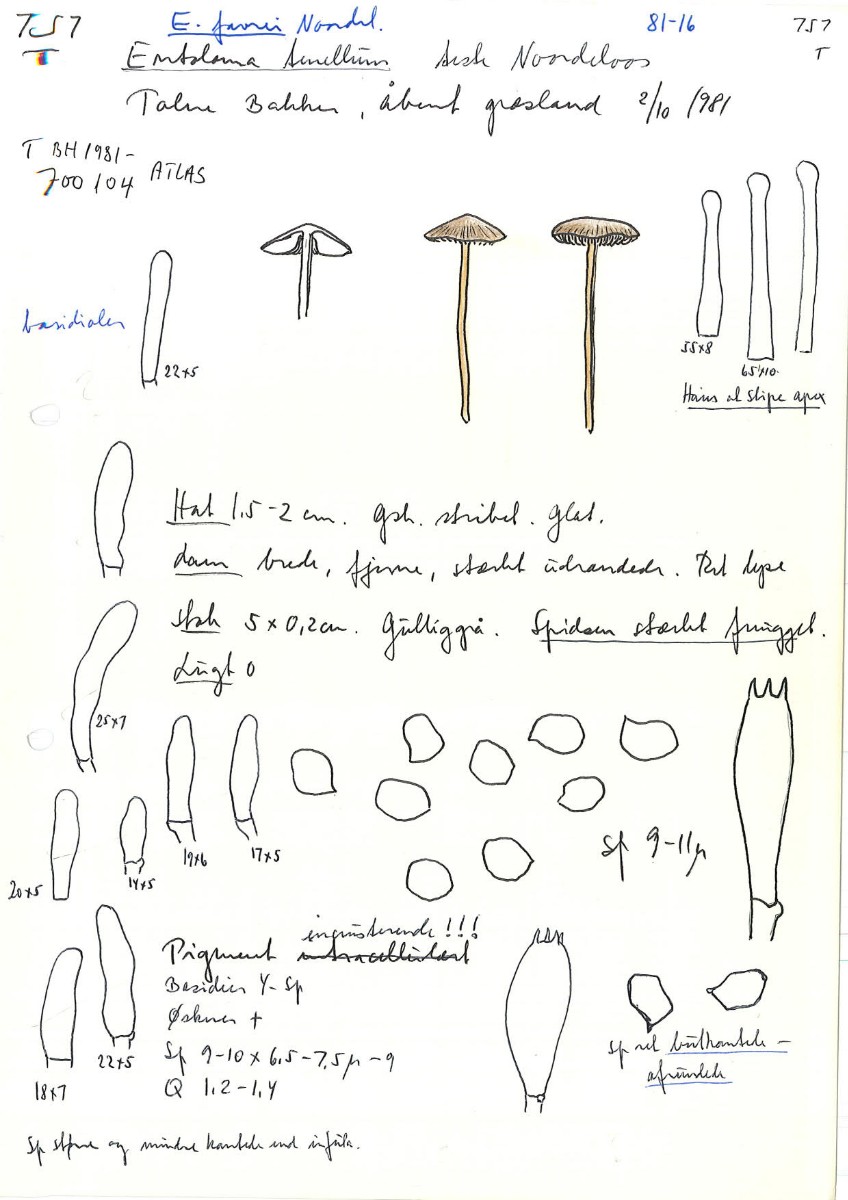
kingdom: Fungi
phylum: Basidiomycota
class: Agaricomycetes
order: Agaricales
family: Entolomataceae
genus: Entoloma
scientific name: Entoloma favrei
